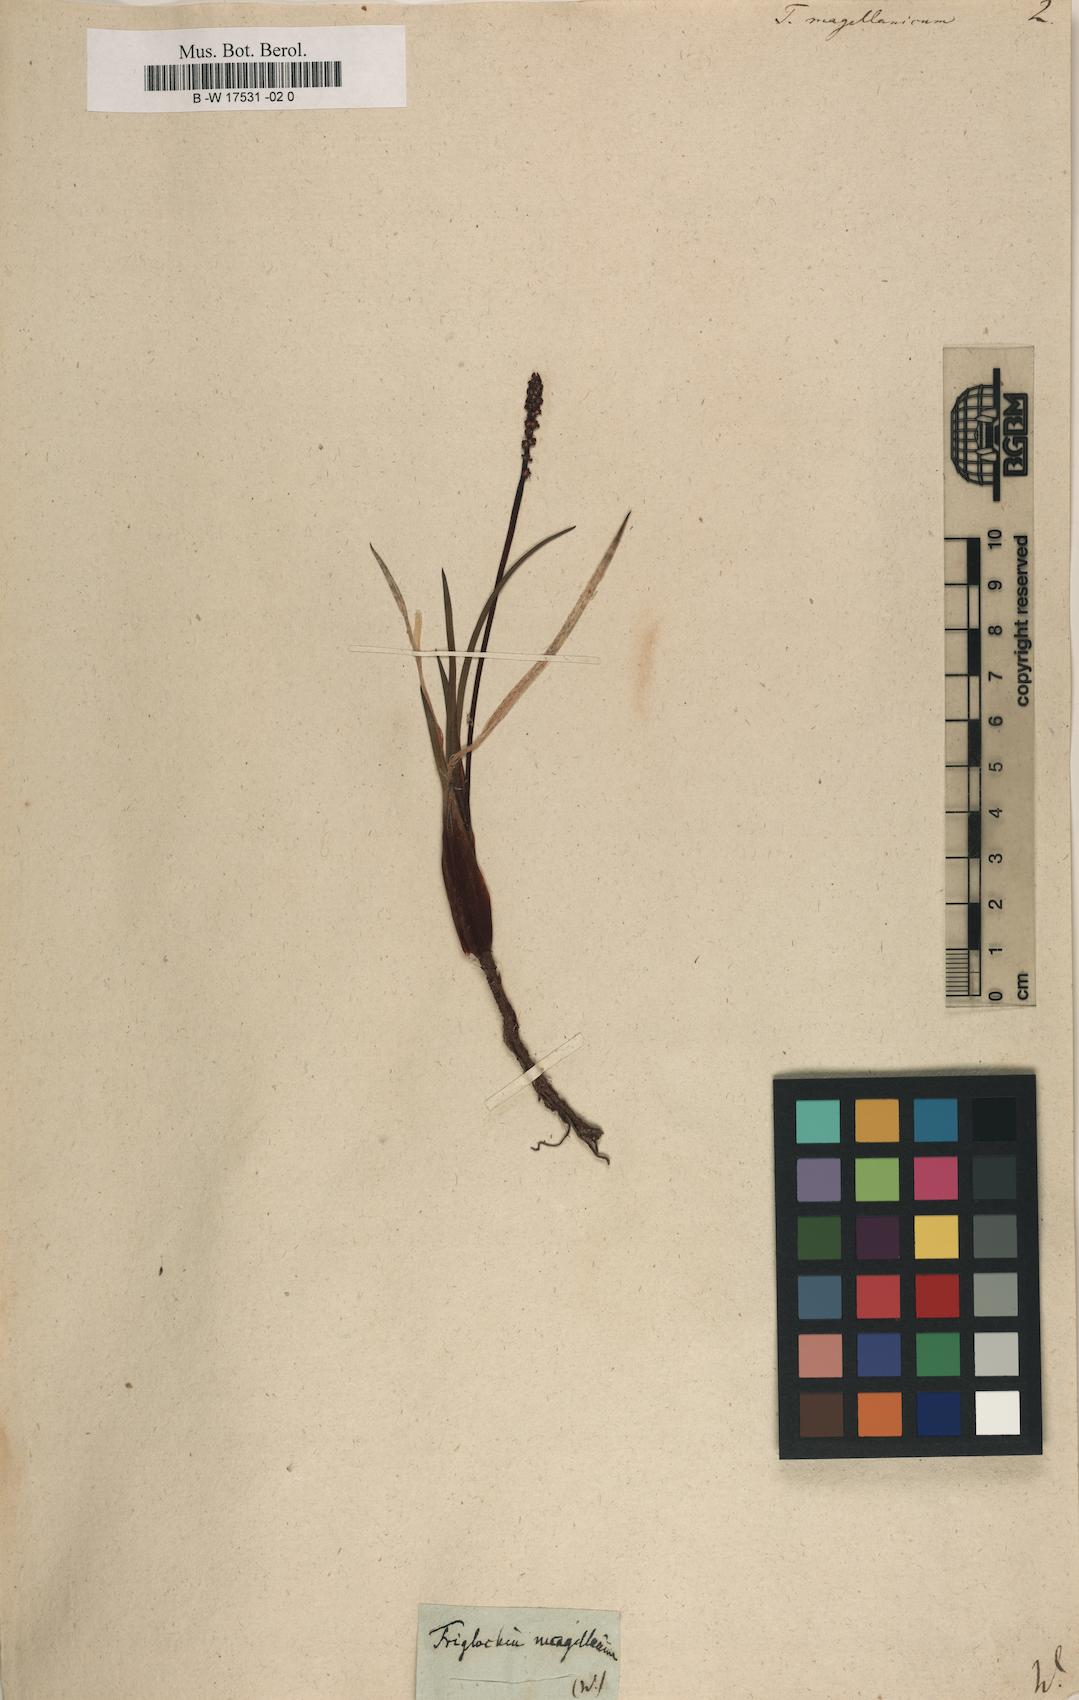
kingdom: Plantae
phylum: Tracheophyta
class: Liliopsida
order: Alismatales
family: Juncaginaceae
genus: Tetroncium
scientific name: Tetroncium magellanicum
